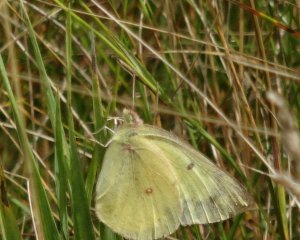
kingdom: Animalia
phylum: Arthropoda
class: Insecta
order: Lepidoptera
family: Pieridae
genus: Colias
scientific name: Colias philodice
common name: Clouded Sulphur
